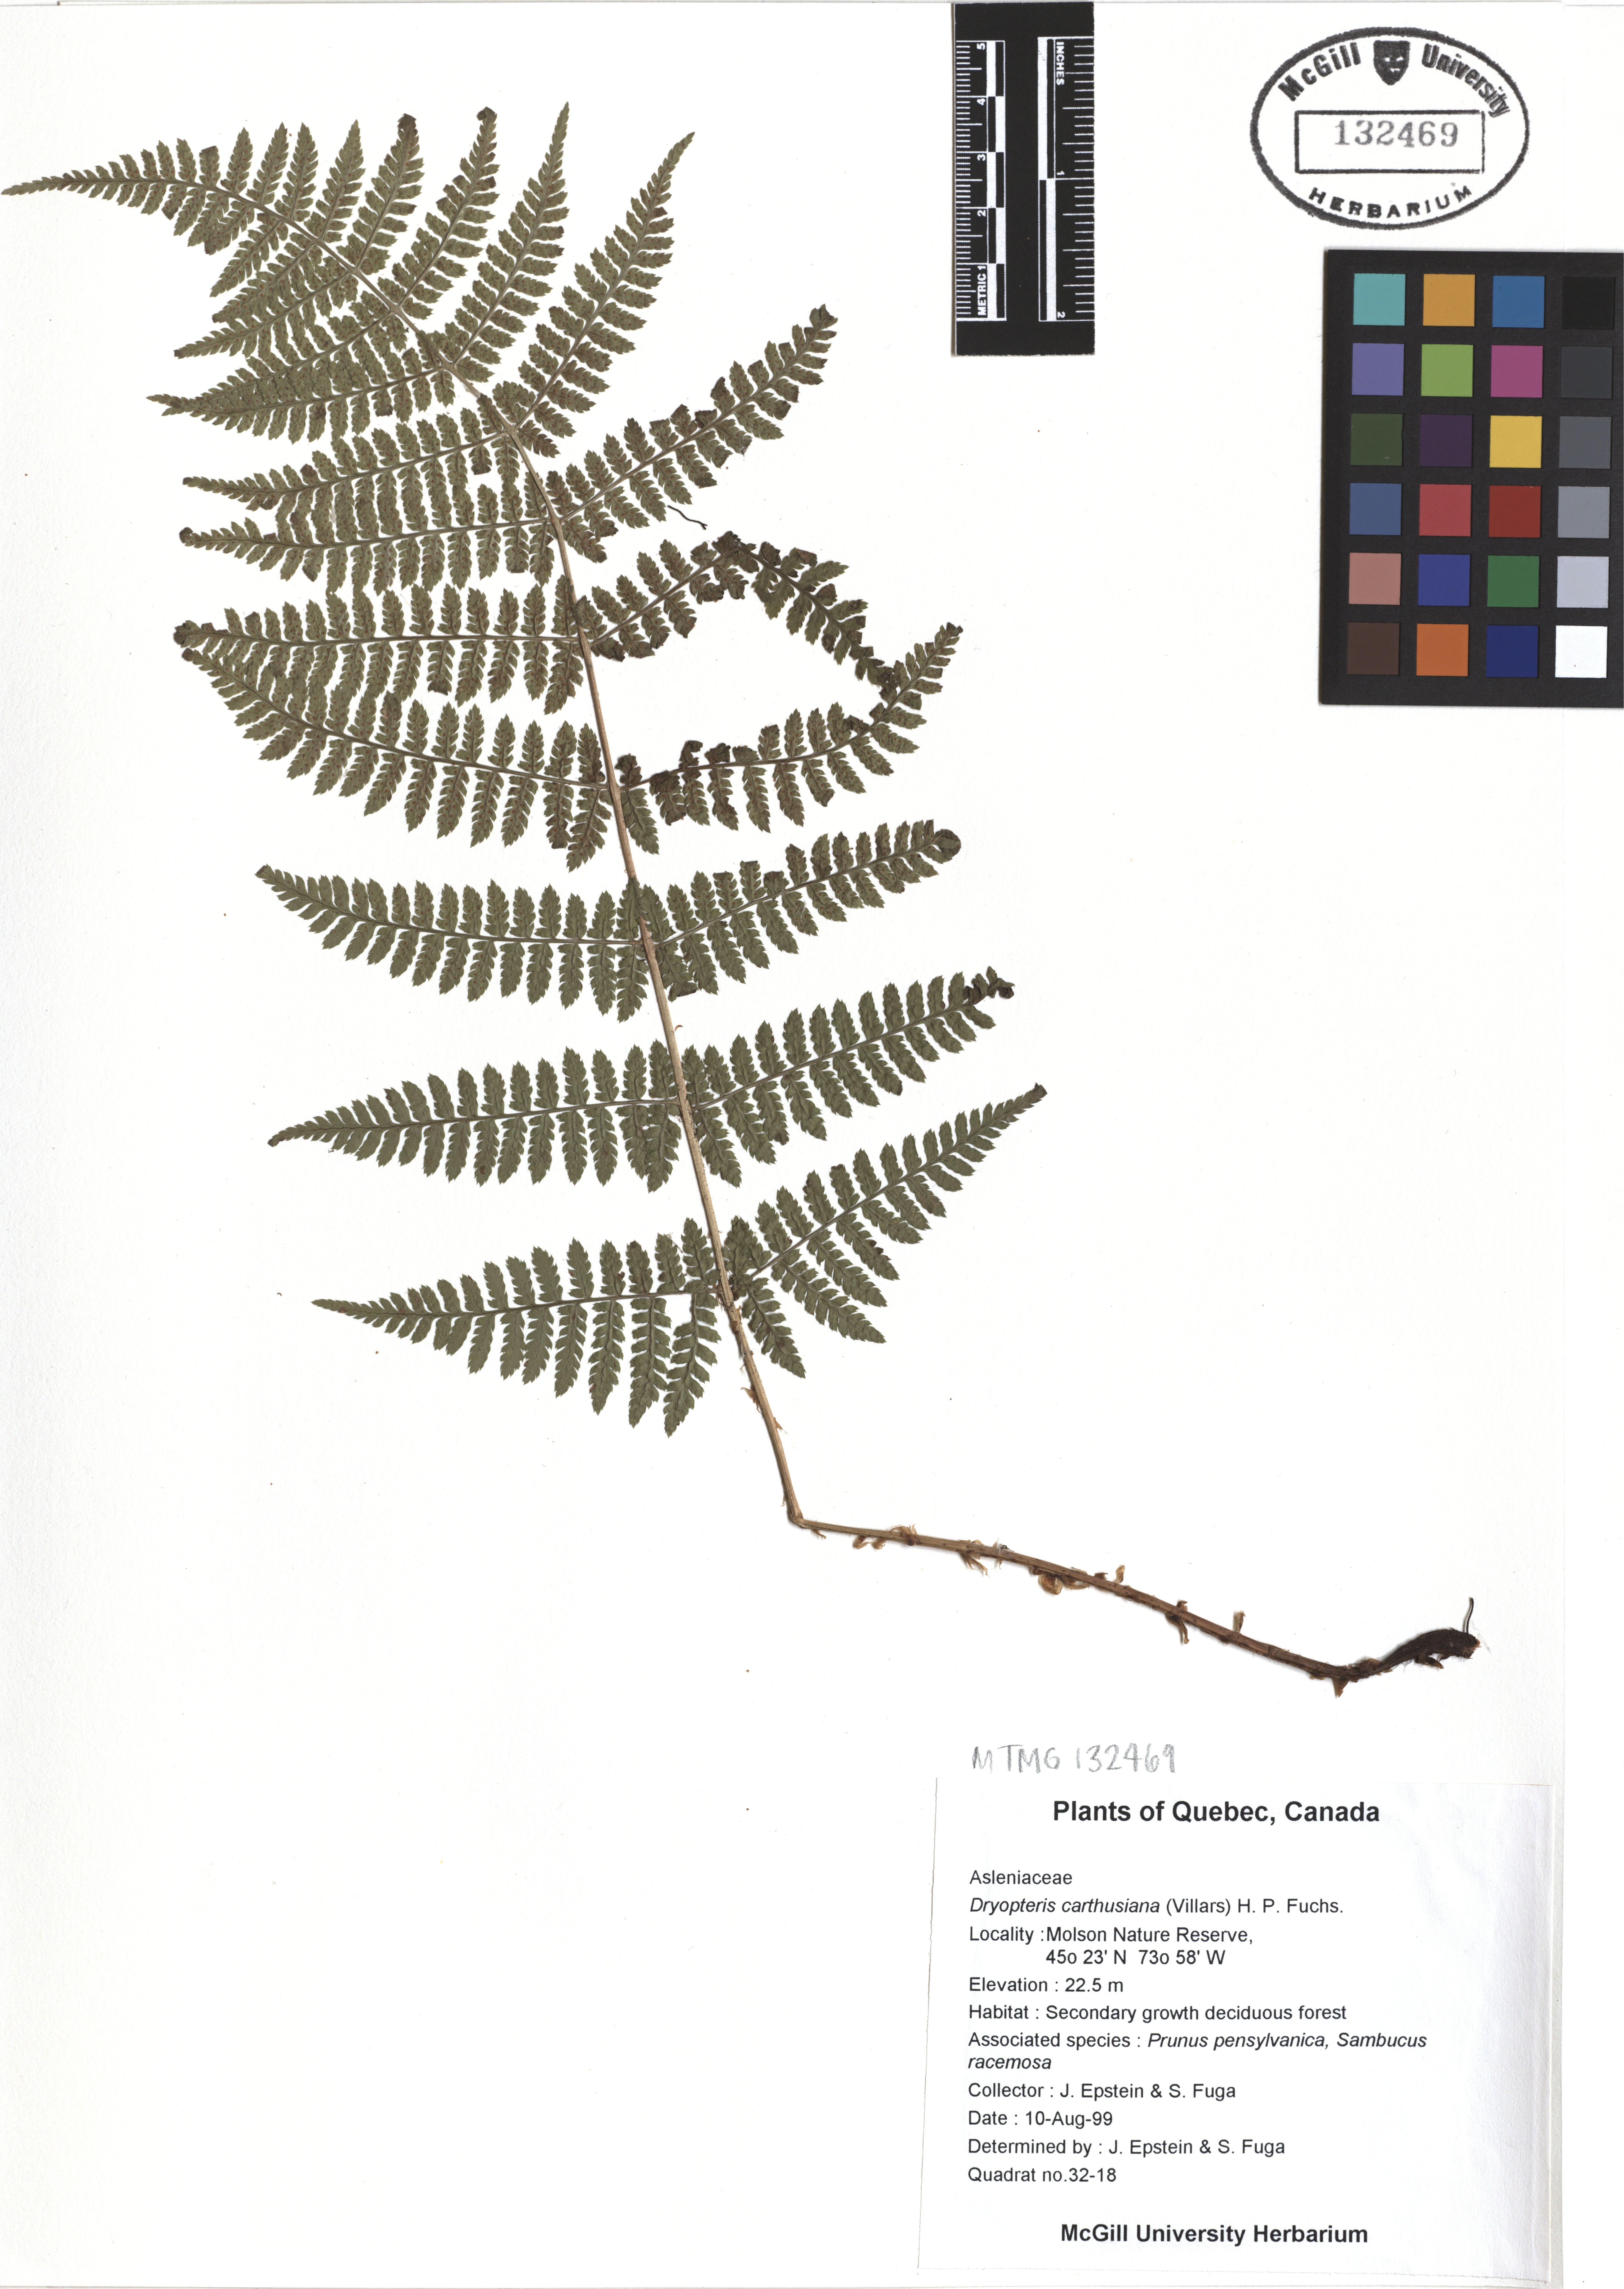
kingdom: Plantae
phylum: Tracheophyta
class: Polypodiopsida
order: Polypodiales
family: Dryopteridaceae
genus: Dryopteris
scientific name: Dryopteris carthusiana
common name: Narrow buckler-fern
